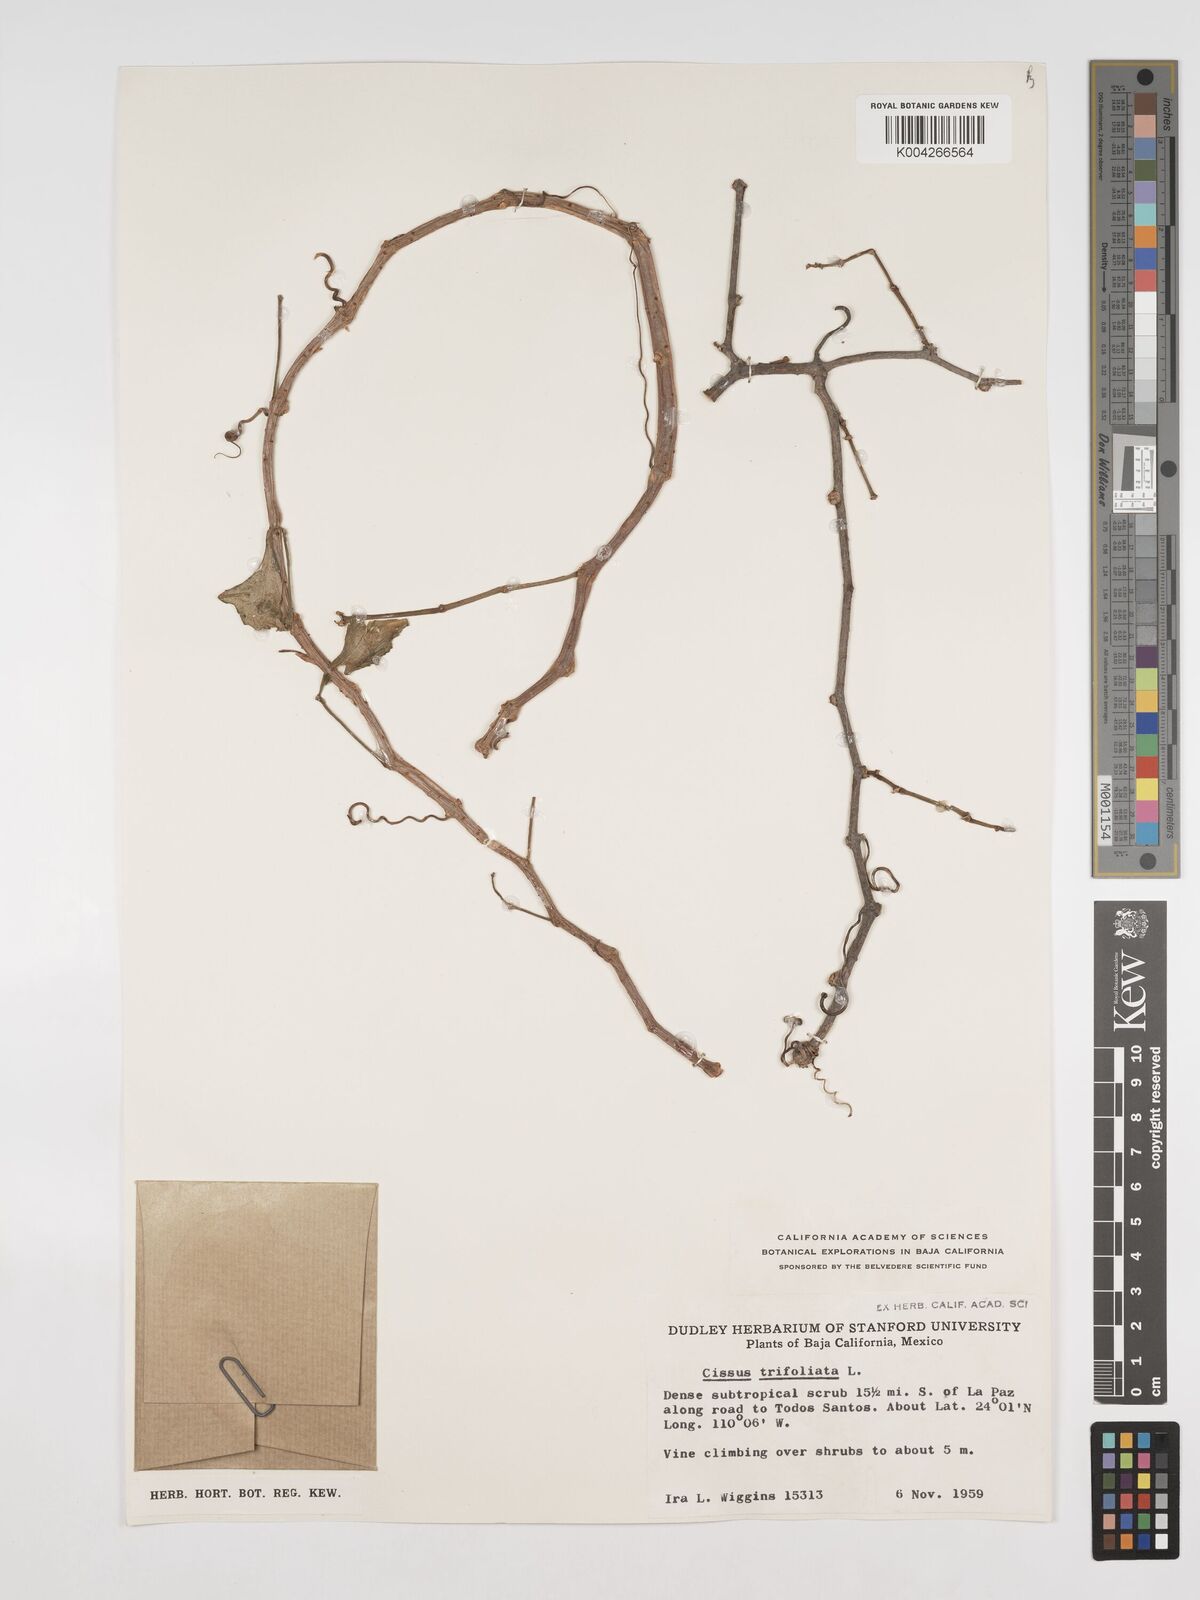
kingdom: Plantae
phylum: Tracheophyta
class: Magnoliopsida
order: Vitales
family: Vitaceae
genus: Cissus
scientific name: Cissus
